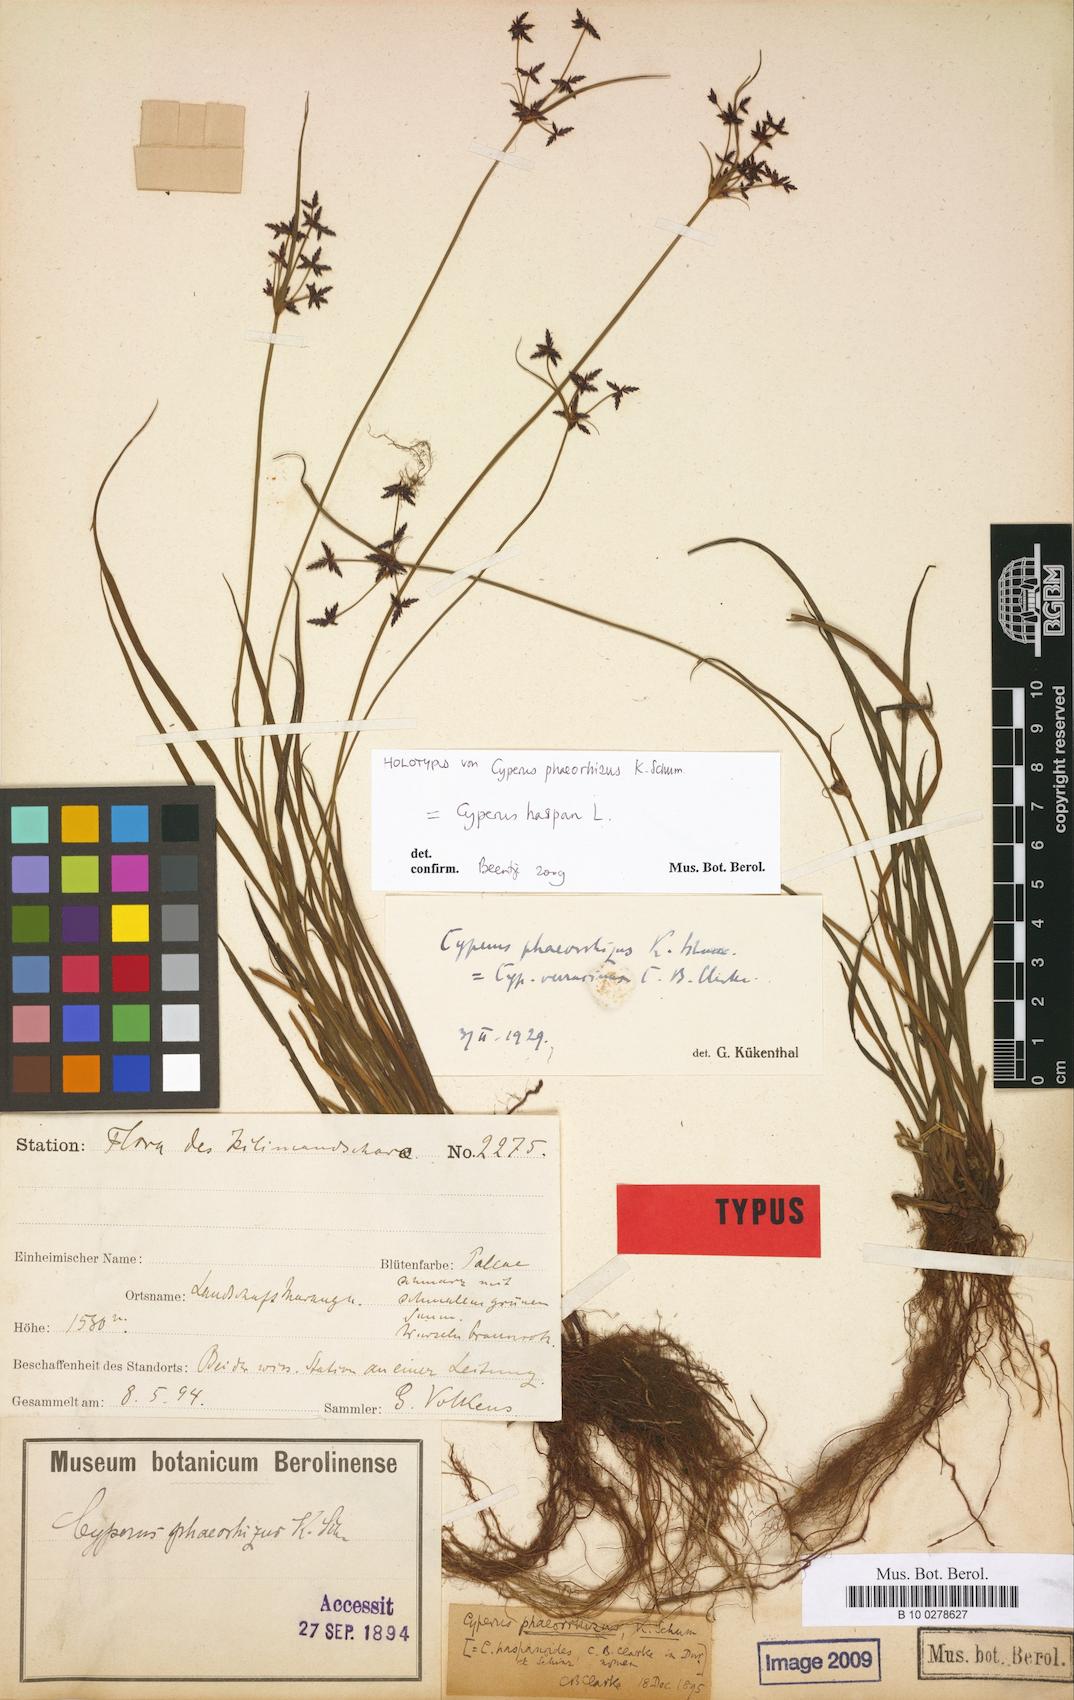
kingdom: Plantae
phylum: Tracheophyta
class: Liliopsida
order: Poales
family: Cyperaceae
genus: Cyperus
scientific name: Cyperus haspan
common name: Haspan flatsedge
